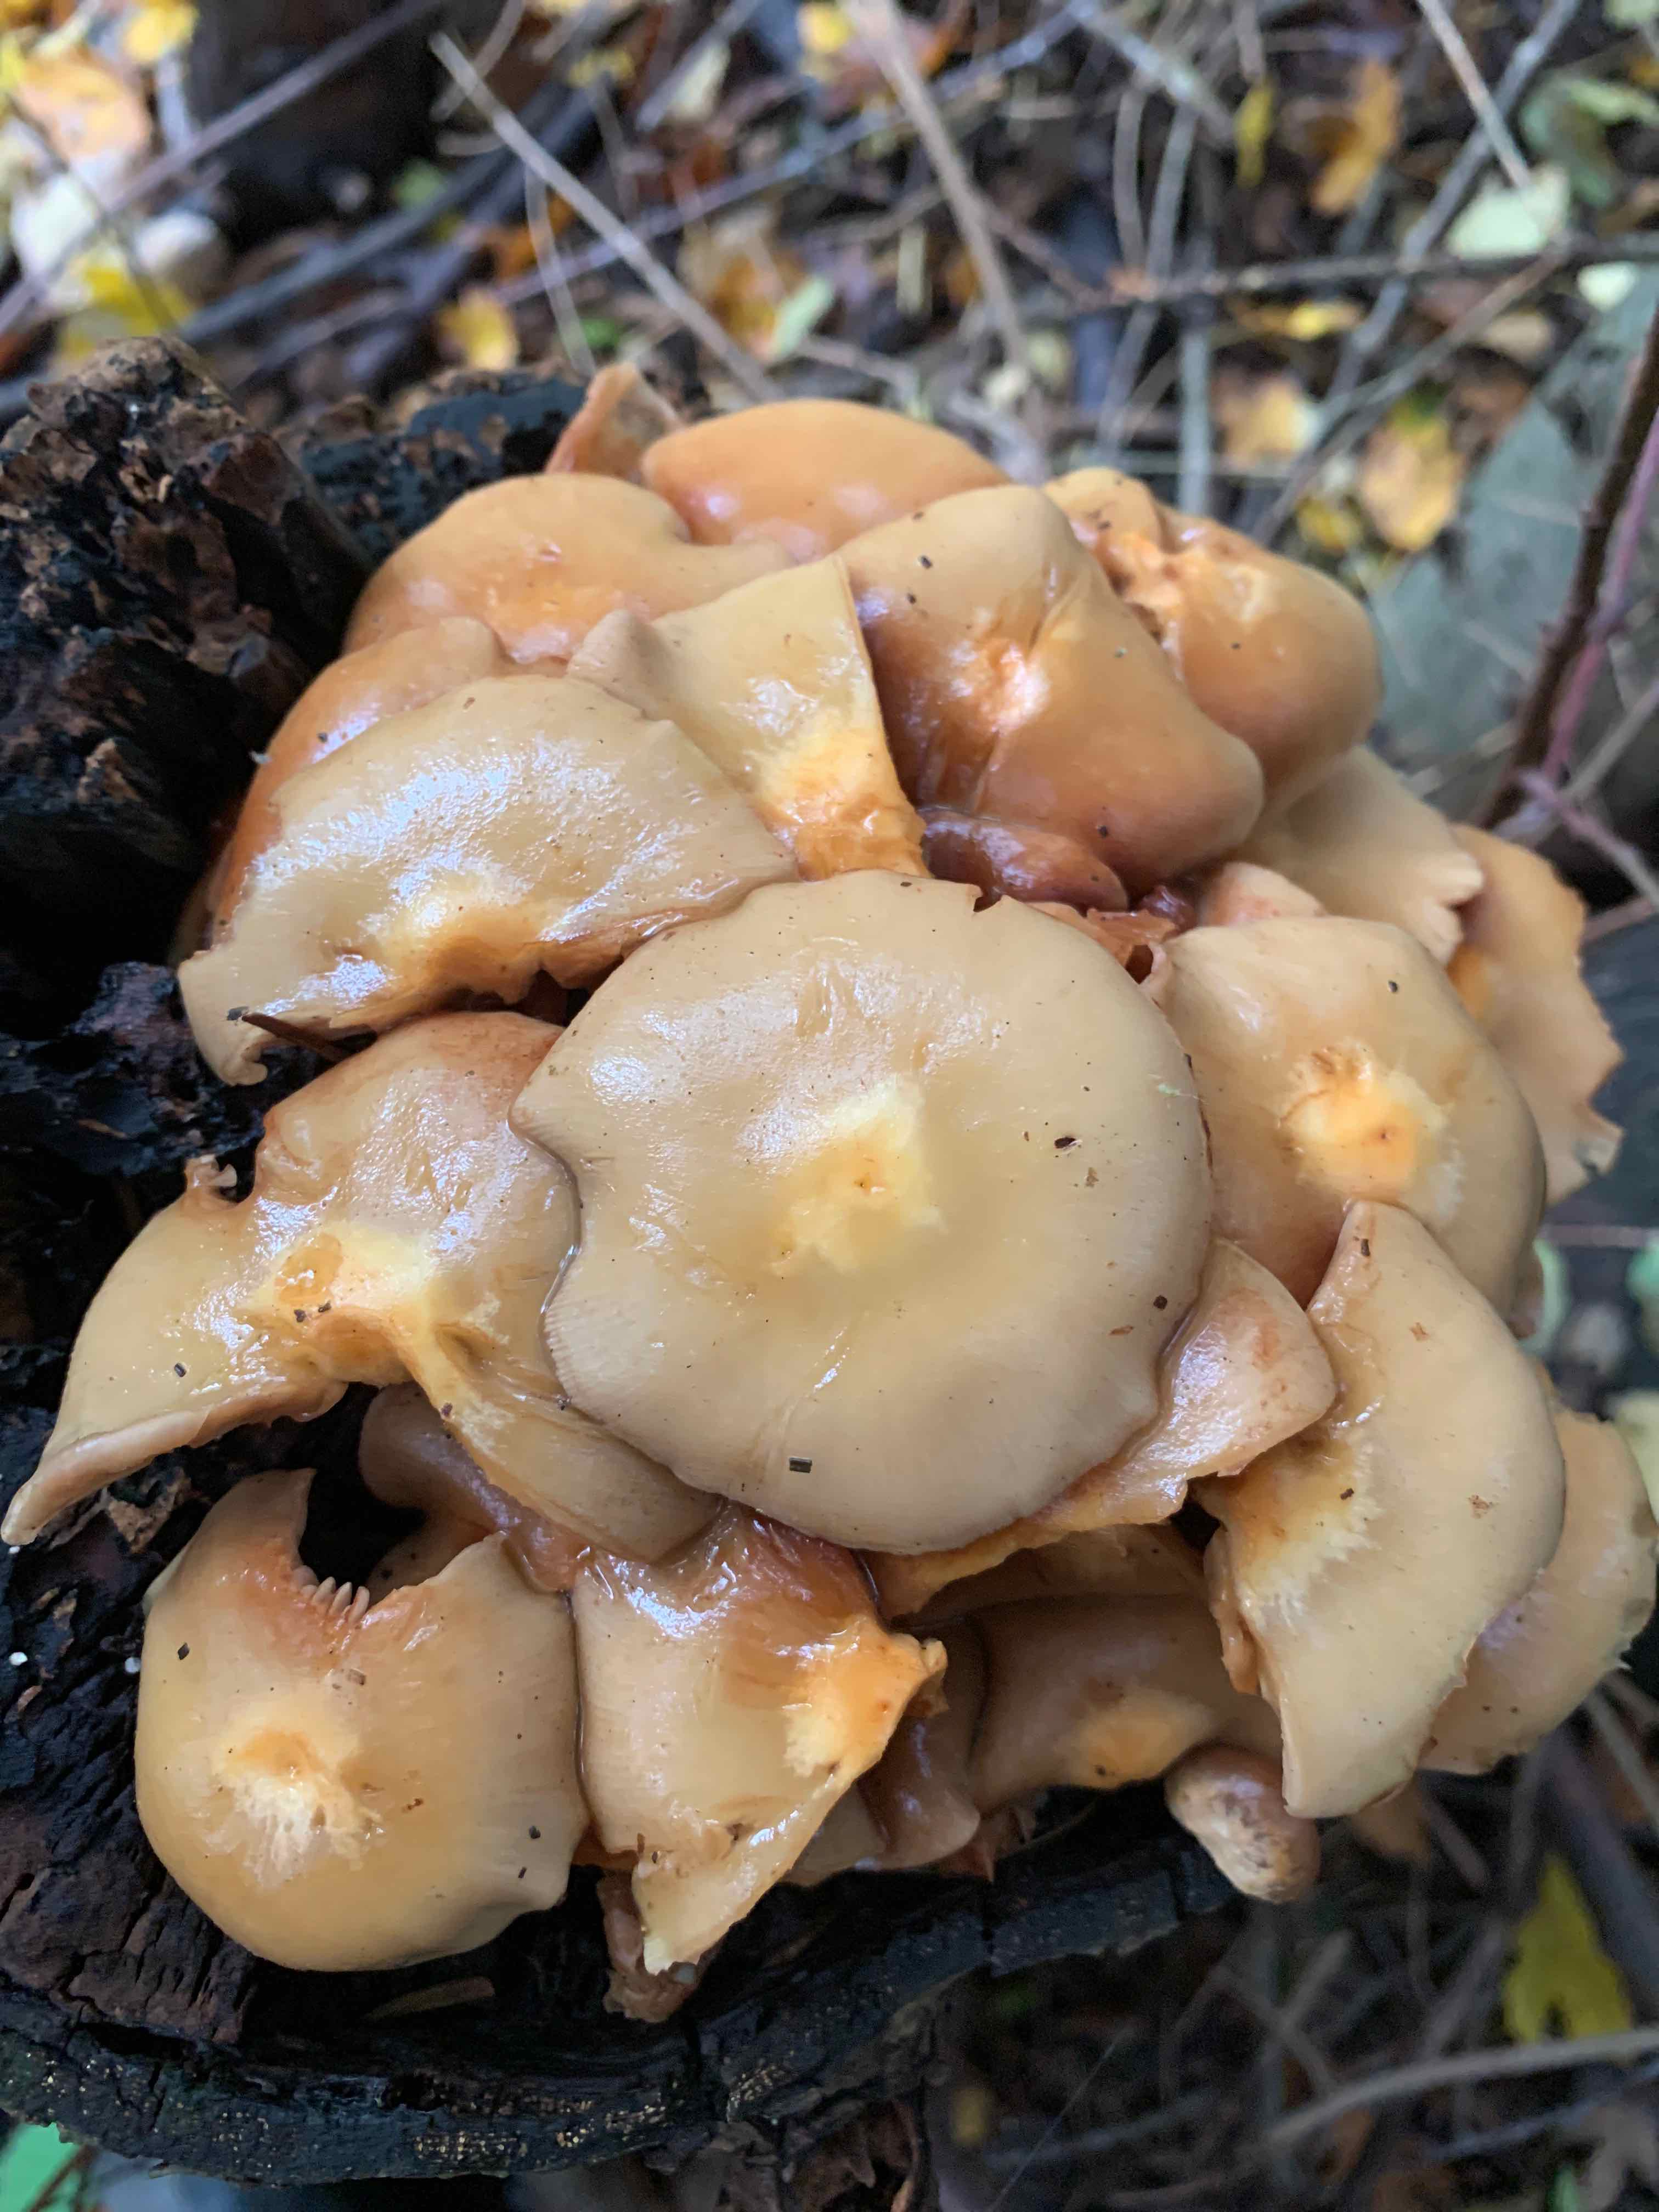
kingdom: Fungi
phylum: Basidiomycota
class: Agaricomycetes
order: Agaricales
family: Strophariaceae
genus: Kuehneromyces
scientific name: Kuehneromyces mutabilis
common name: foranderlig skælhat
